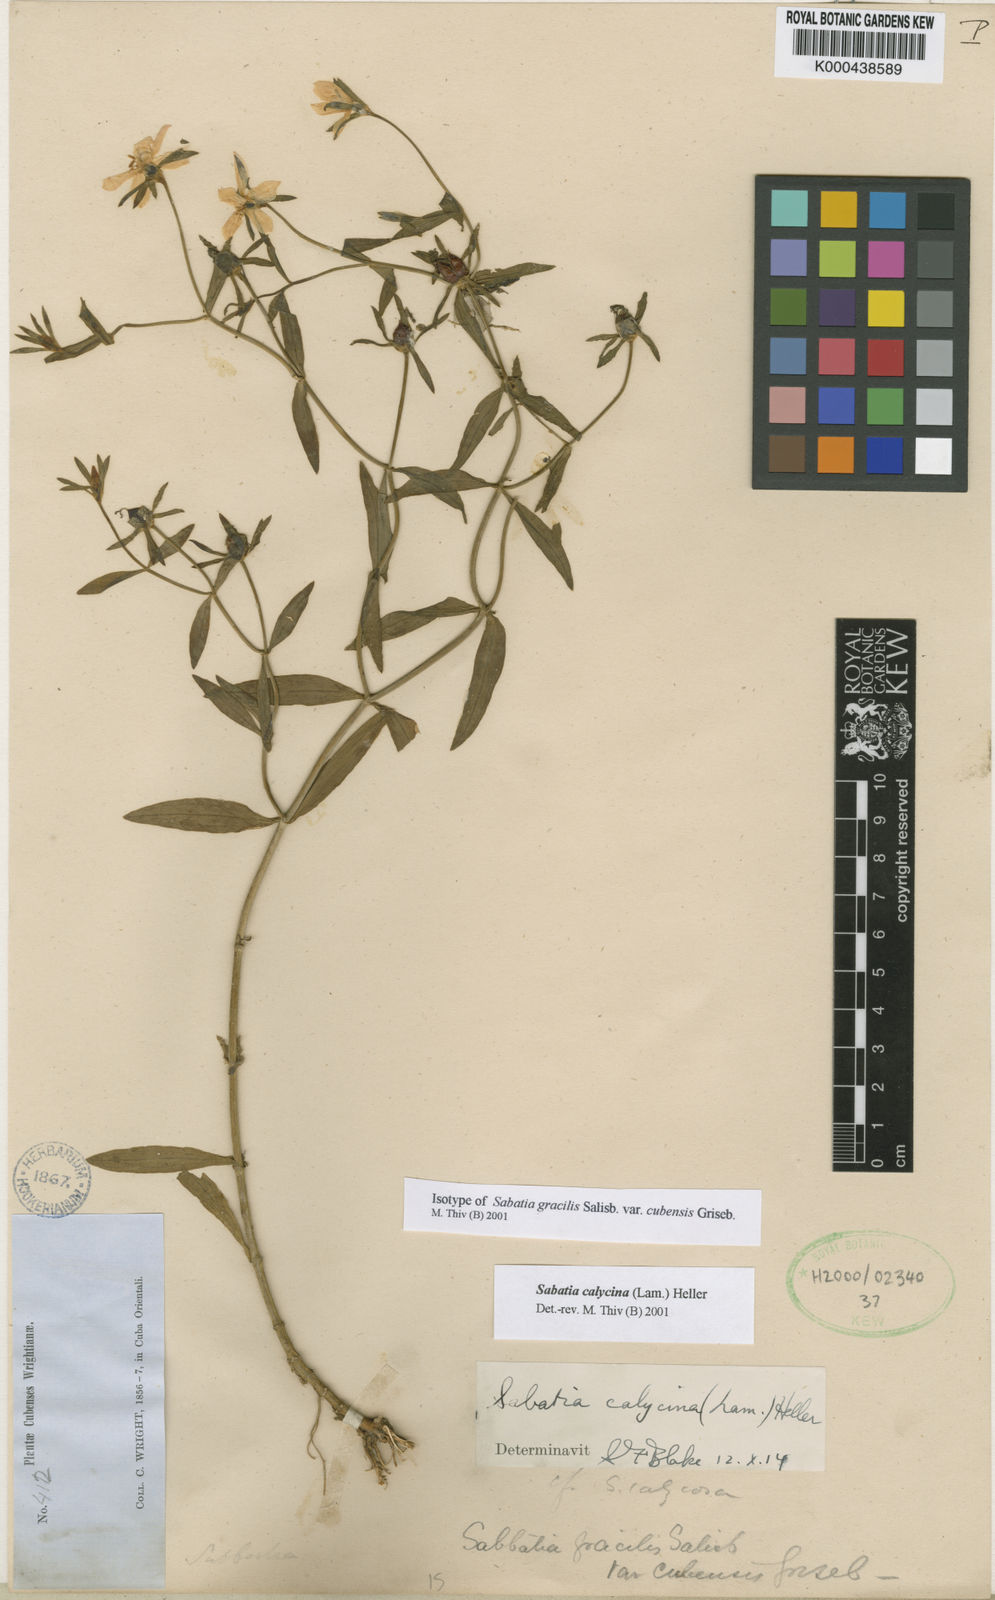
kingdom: Plantae
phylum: Tracheophyta
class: Magnoliopsida
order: Gentianales
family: Gentianaceae
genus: Sabatia
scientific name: Sabatia calycina
